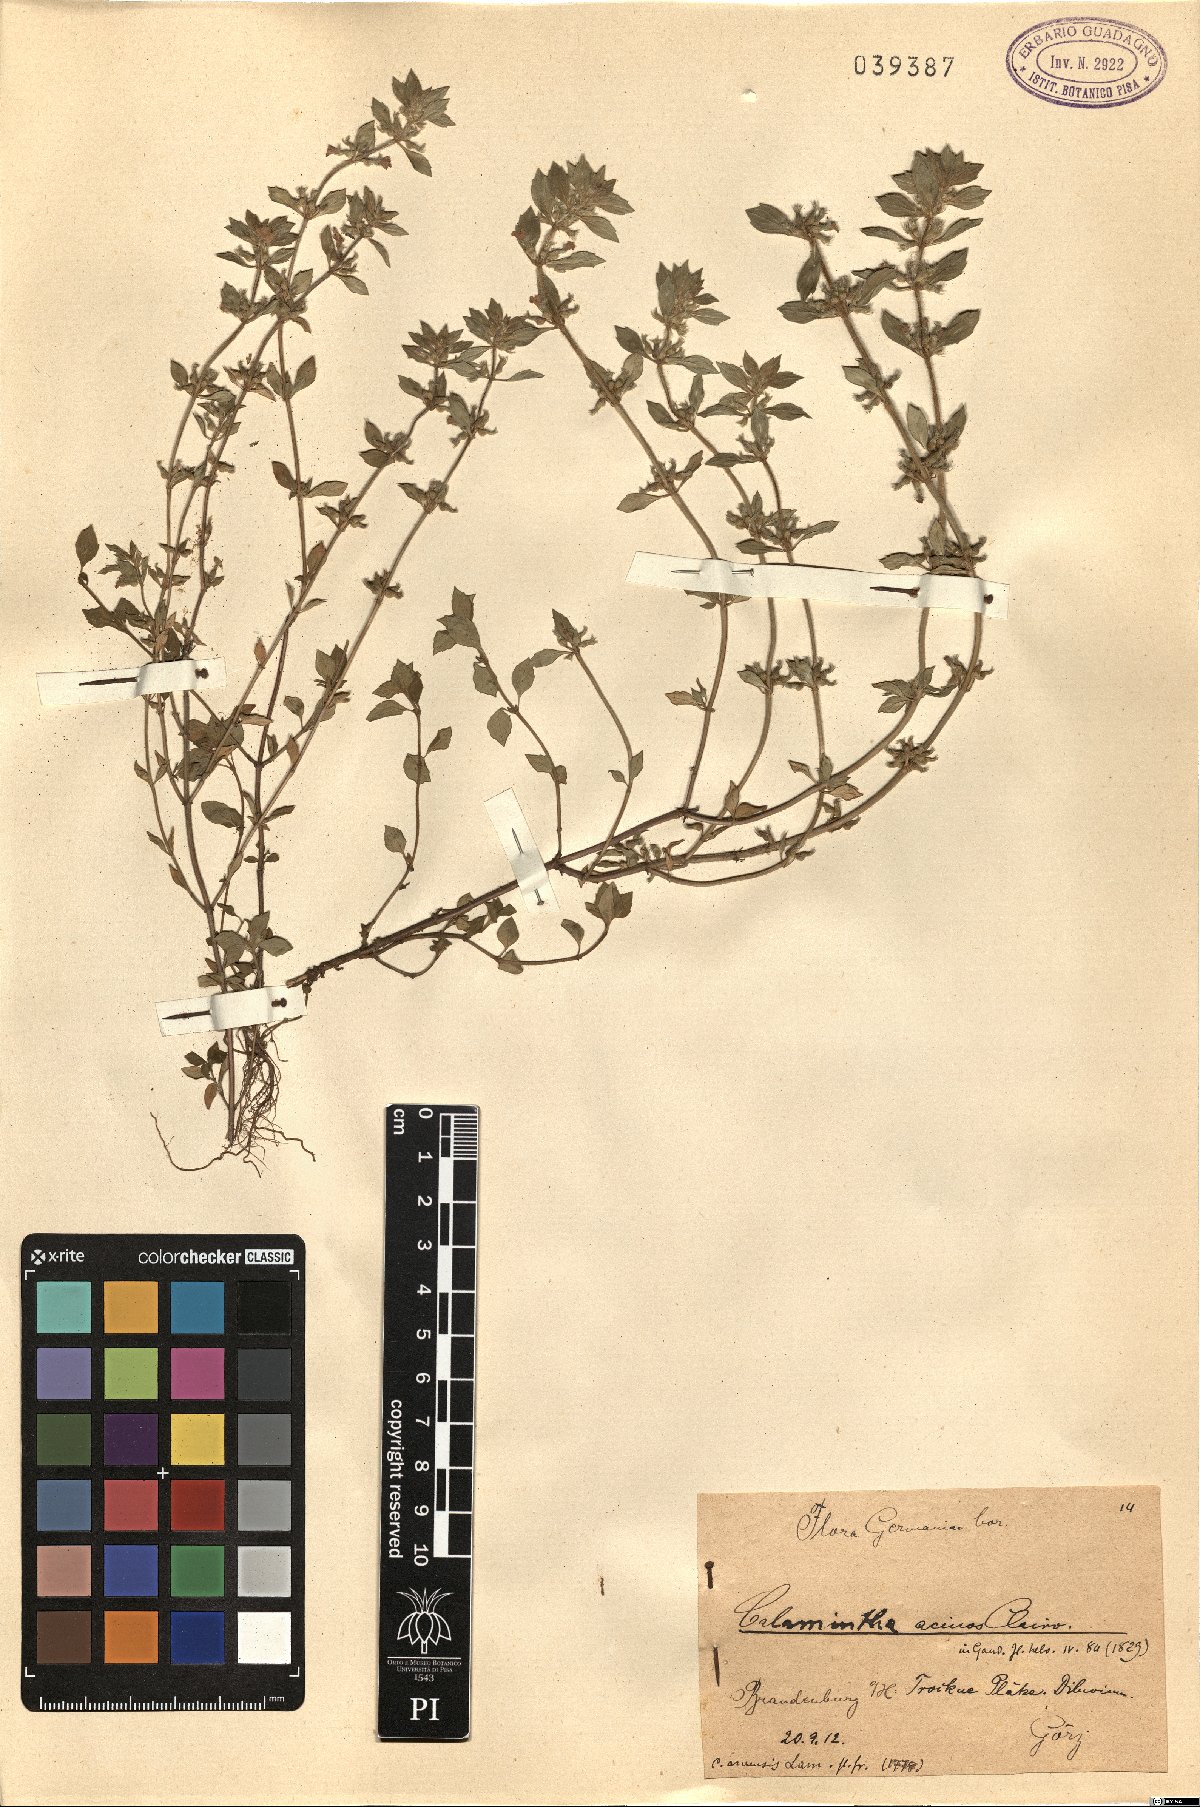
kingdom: Plantae
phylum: Tracheophyta
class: Magnoliopsida
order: Lamiales
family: Lamiaceae
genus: Clinopodium
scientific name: Clinopodium acinos
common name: Basil thyme
